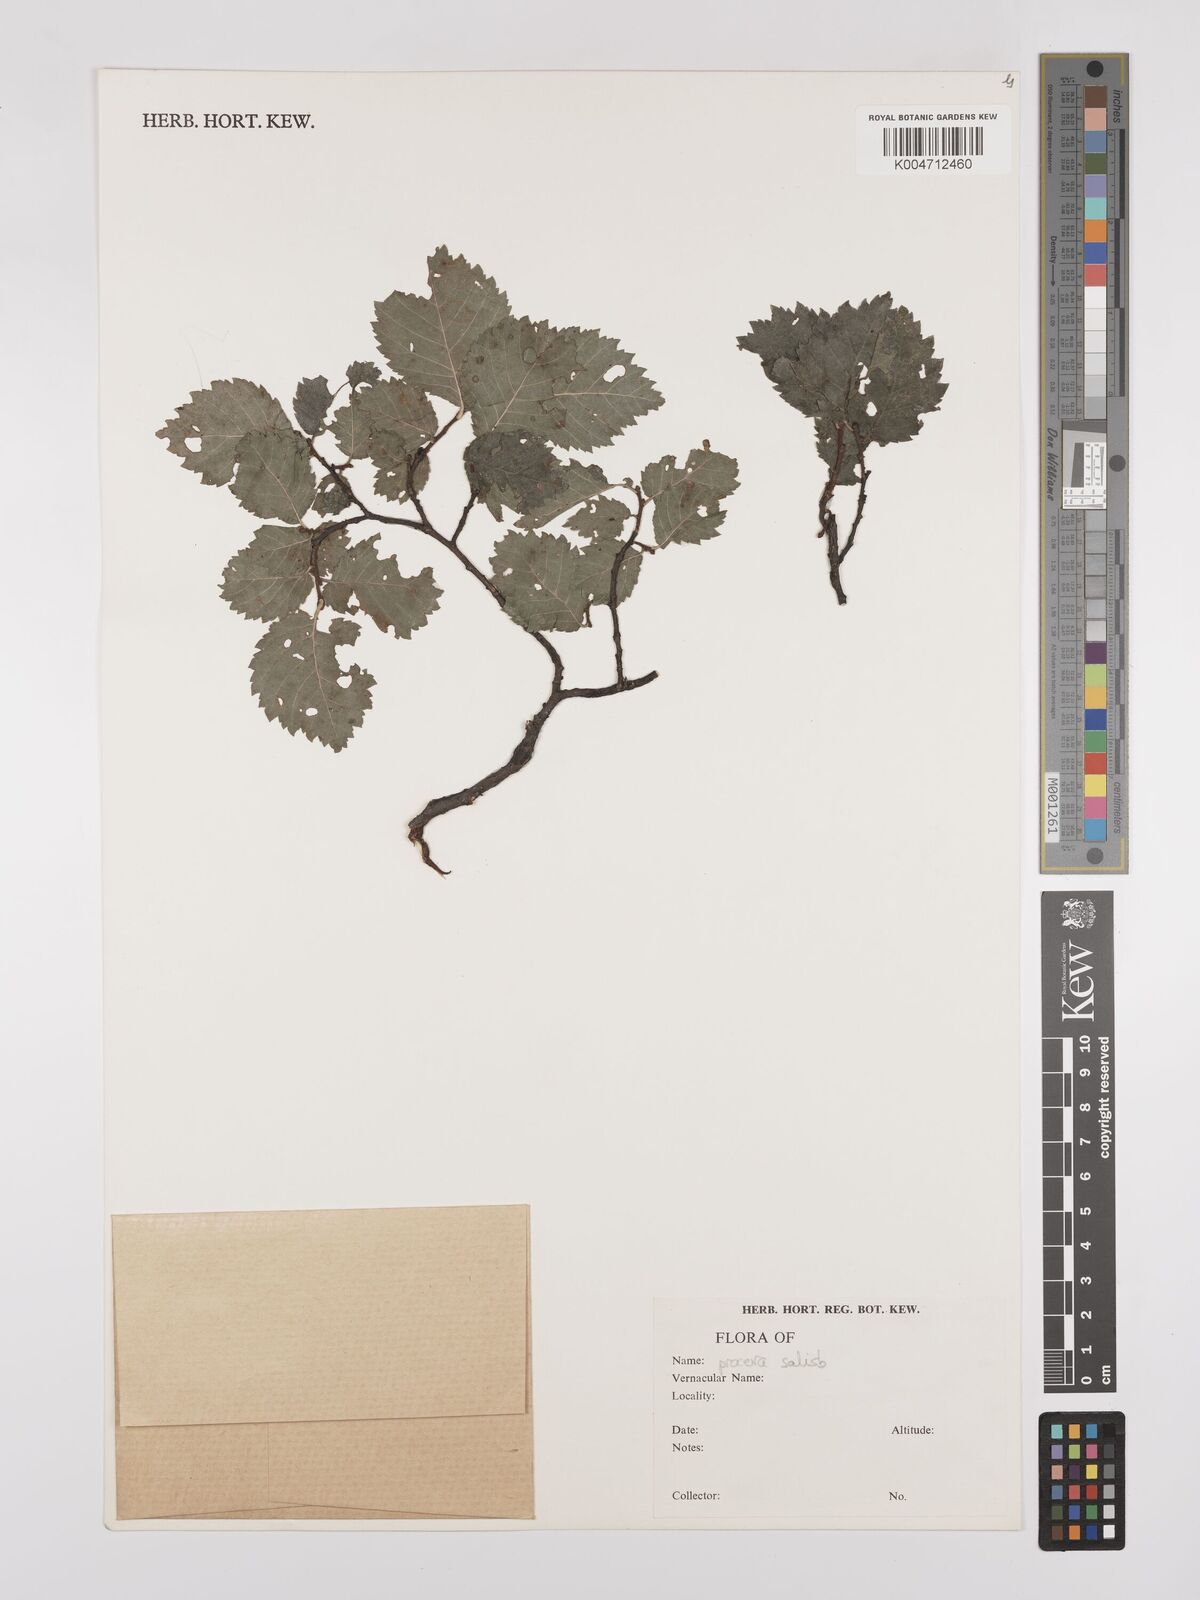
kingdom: Plantae
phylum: Tracheophyta
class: Magnoliopsida
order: Rosales
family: Ulmaceae
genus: Ulmus
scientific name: Ulmus minor
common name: Small-leaved elm
